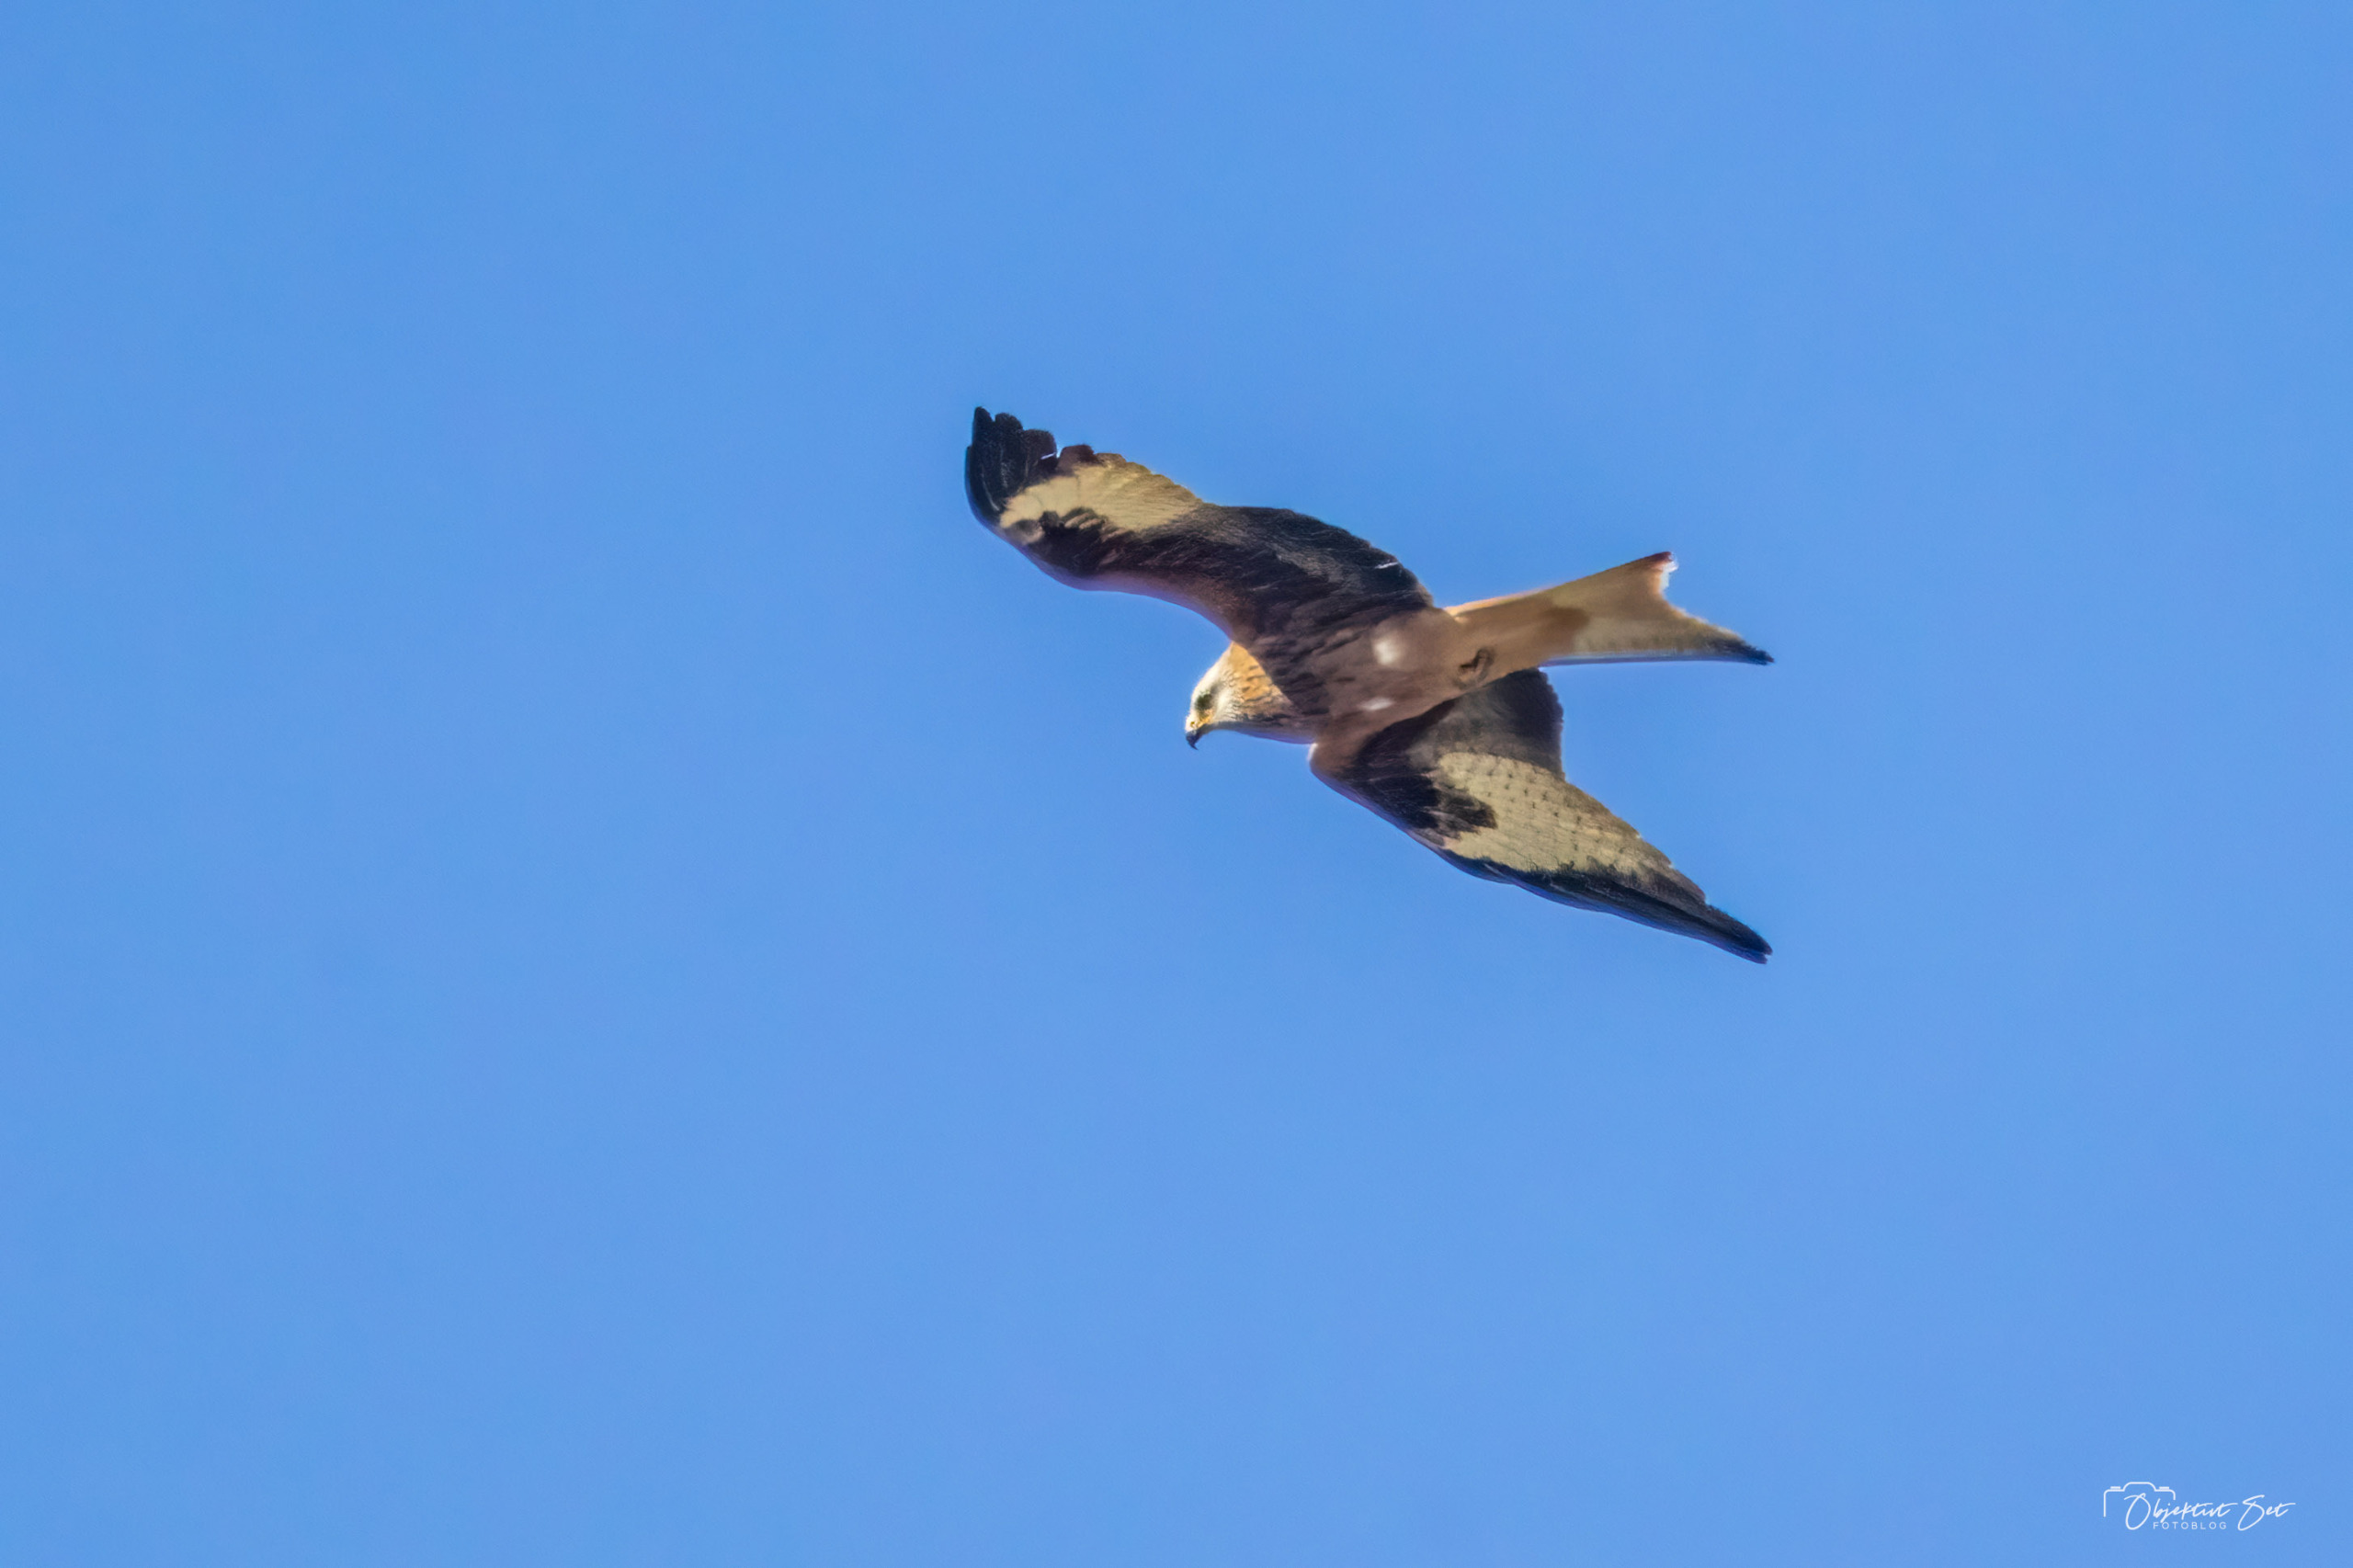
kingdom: Animalia
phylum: Chordata
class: Aves
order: Accipitriformes
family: Accipitridae
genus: Milvus
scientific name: Milvus milvus
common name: Rød glente
